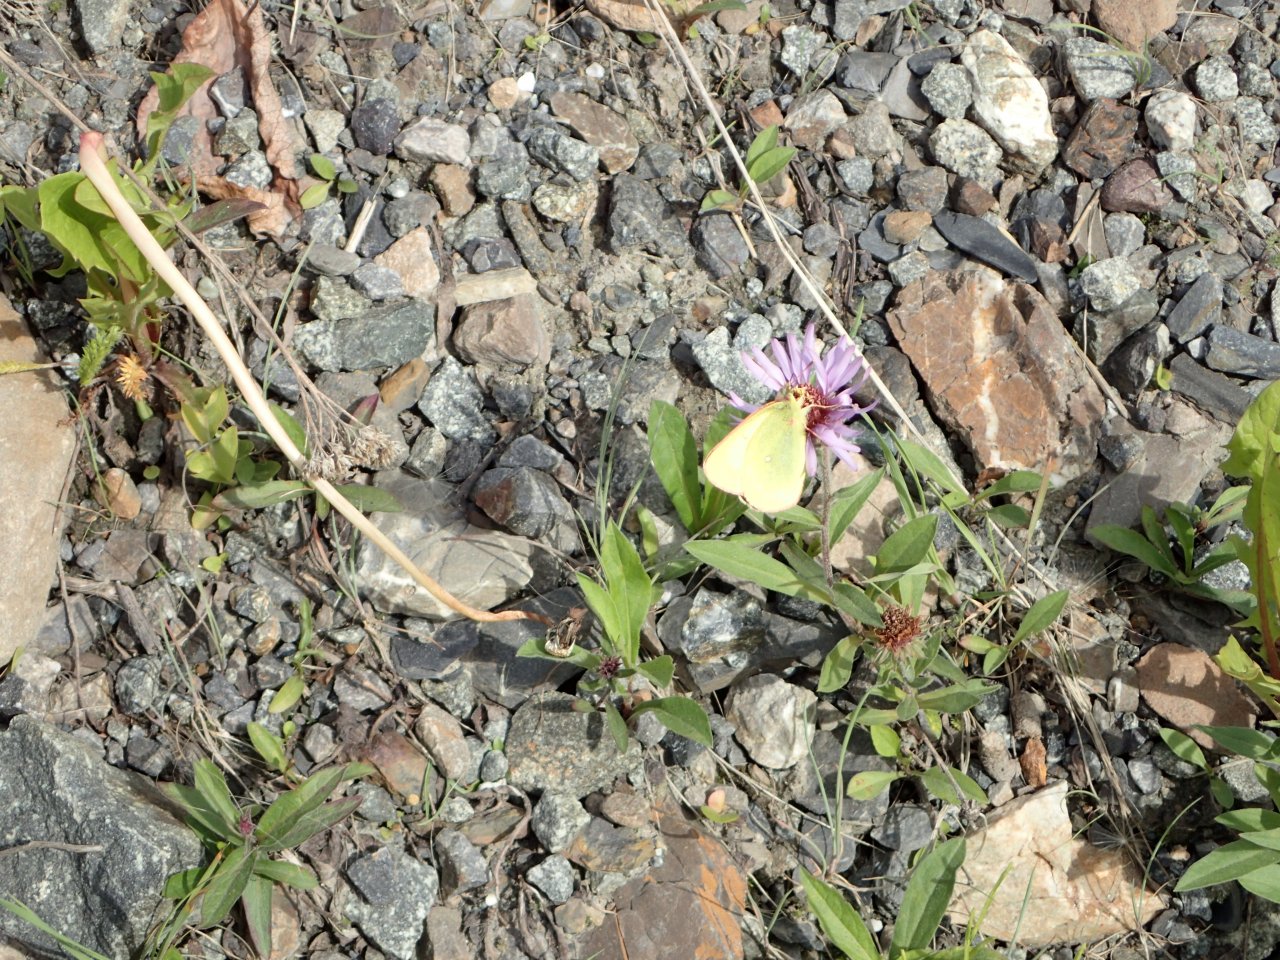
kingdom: Animalia
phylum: Arthropoda
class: Insecta
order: Lepidoptera
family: Pieridae
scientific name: Pieridae
